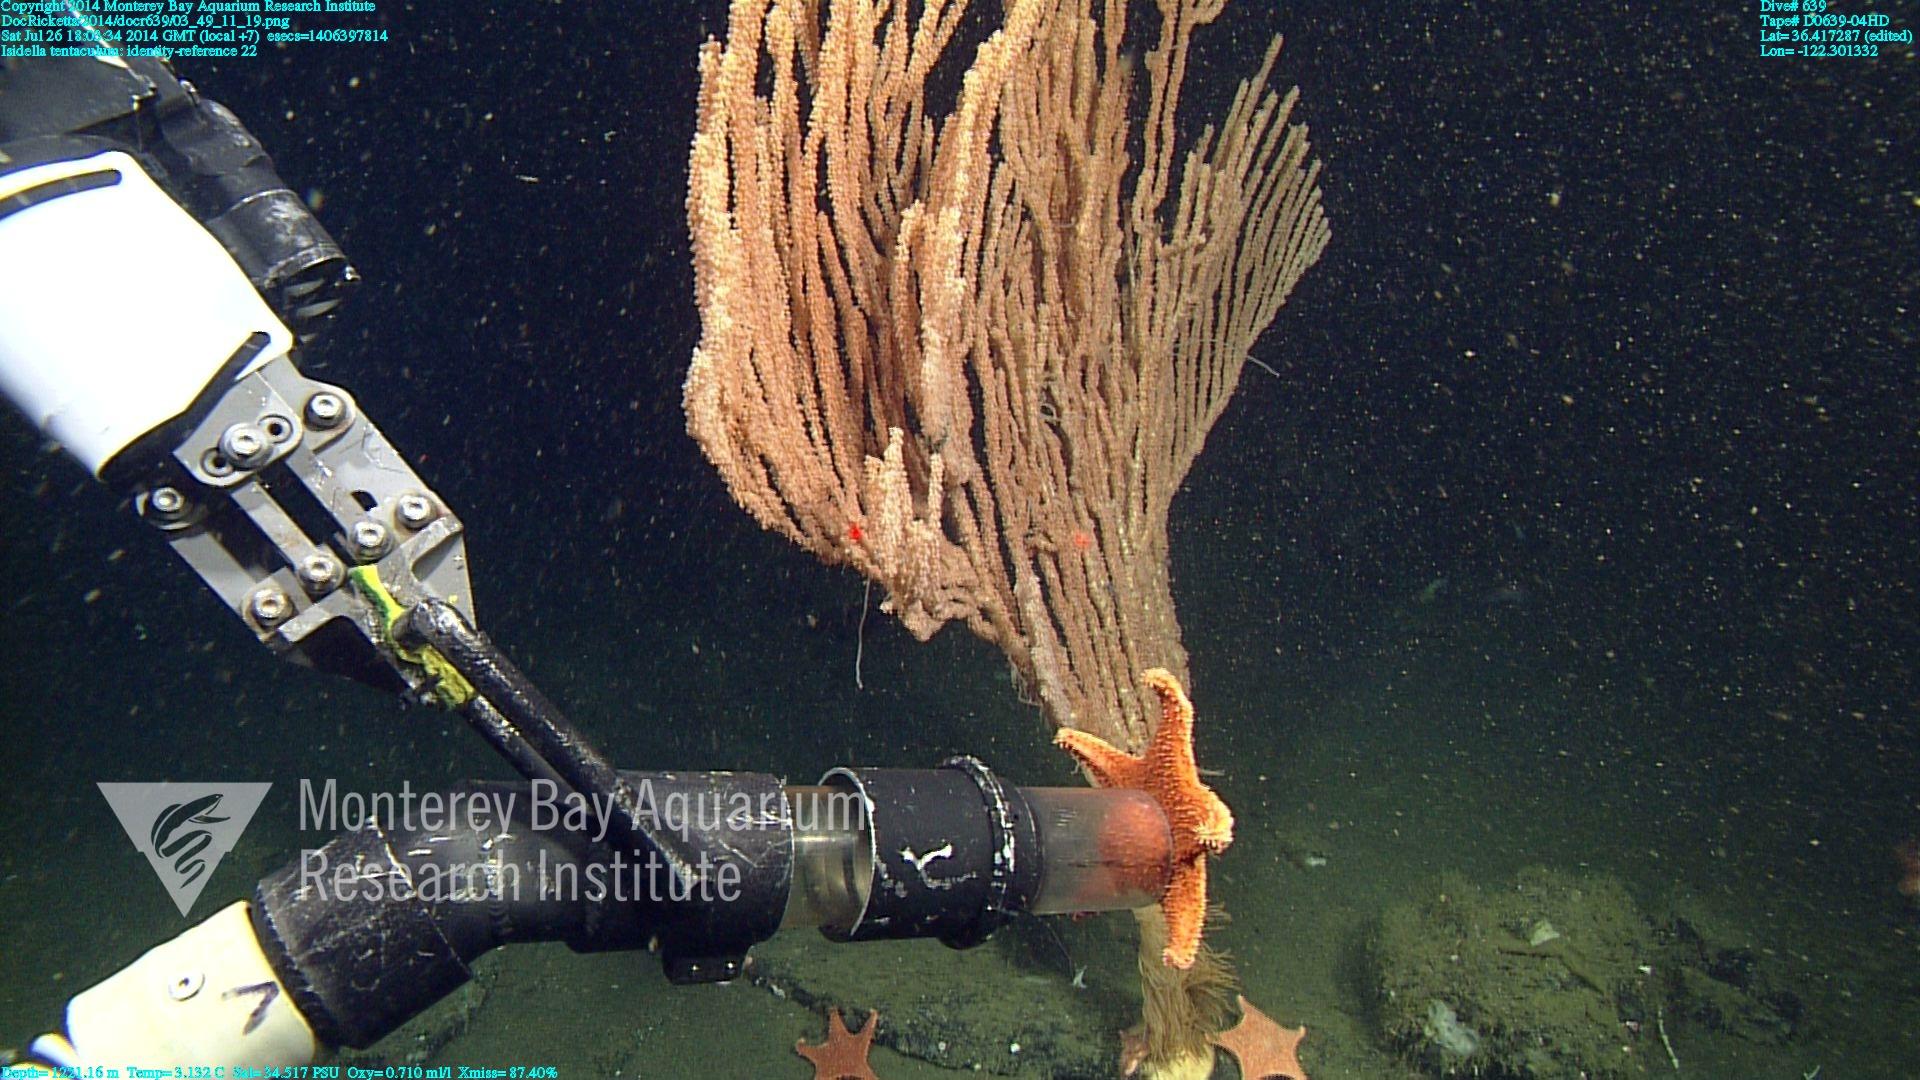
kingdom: Animalia
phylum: Cnidaria
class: Anthozoa
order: Scleralcyonacea
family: Keratoisididae
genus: Isidella
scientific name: Isidella tentaculum
